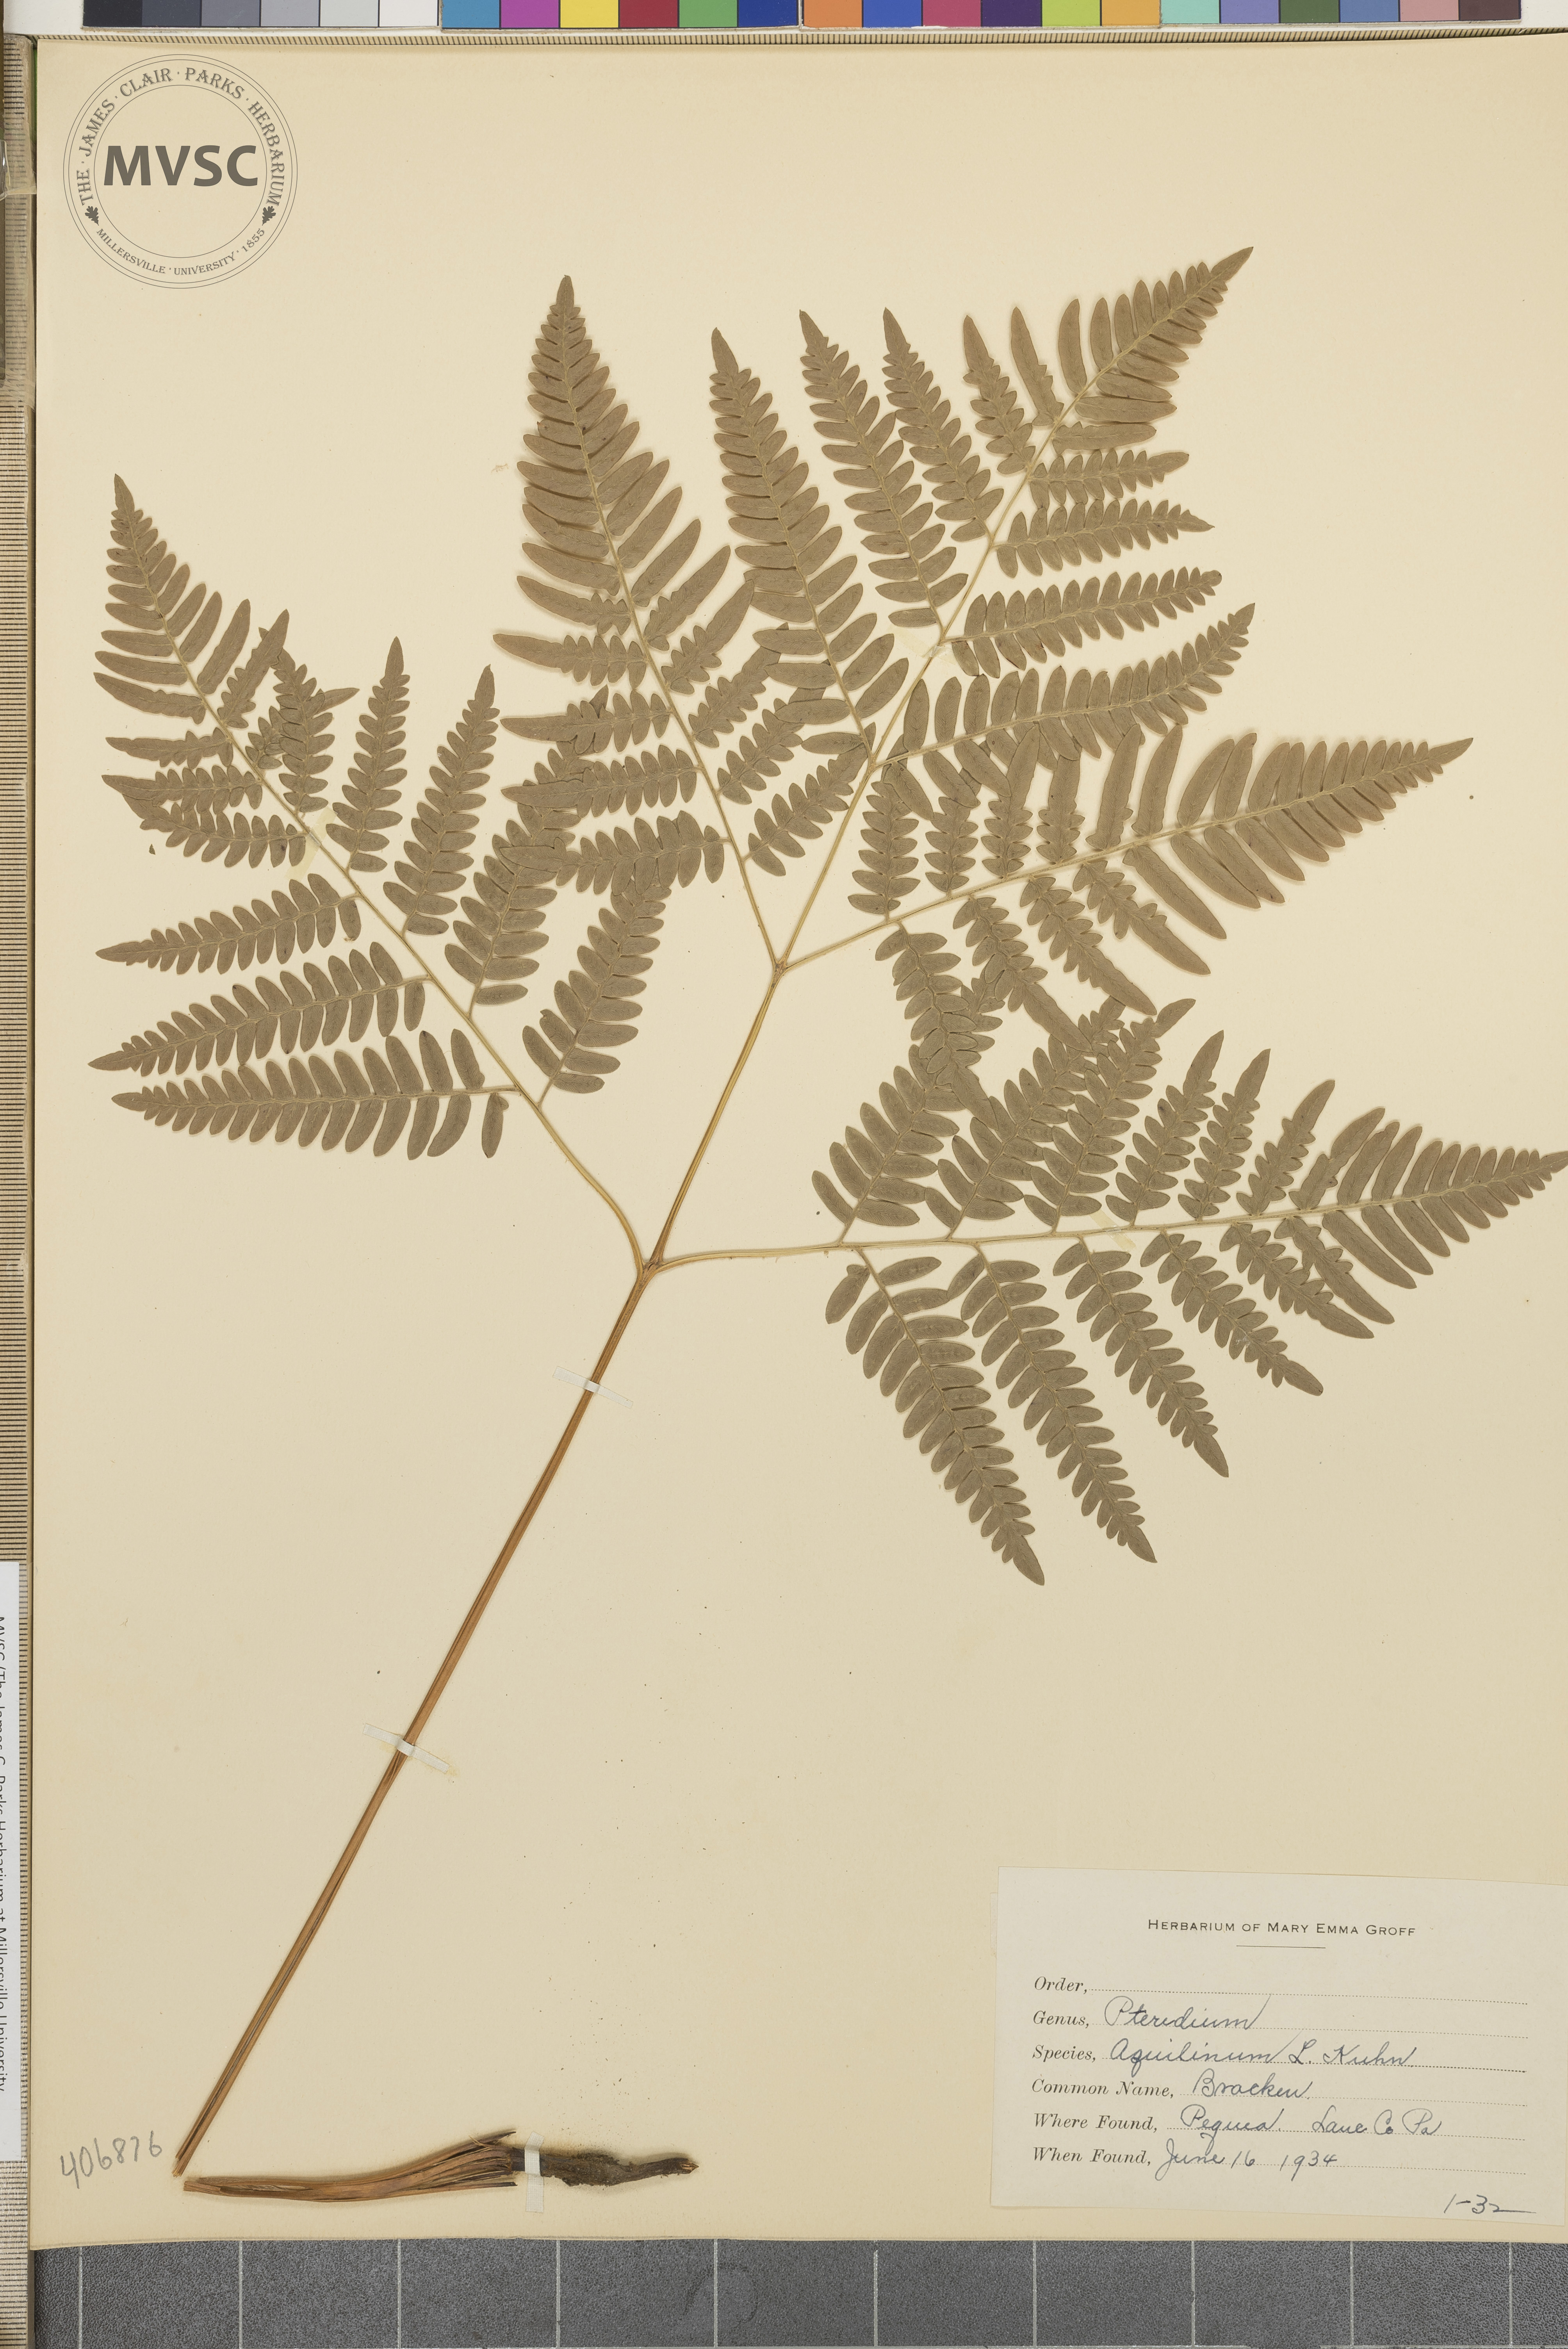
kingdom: Plantae
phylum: Tracheophyta
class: Polypodiopsida
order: Polypodiales
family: Dennstaedtiaceae
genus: Pteridium
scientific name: Pteridium aquilinum
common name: Bracken
